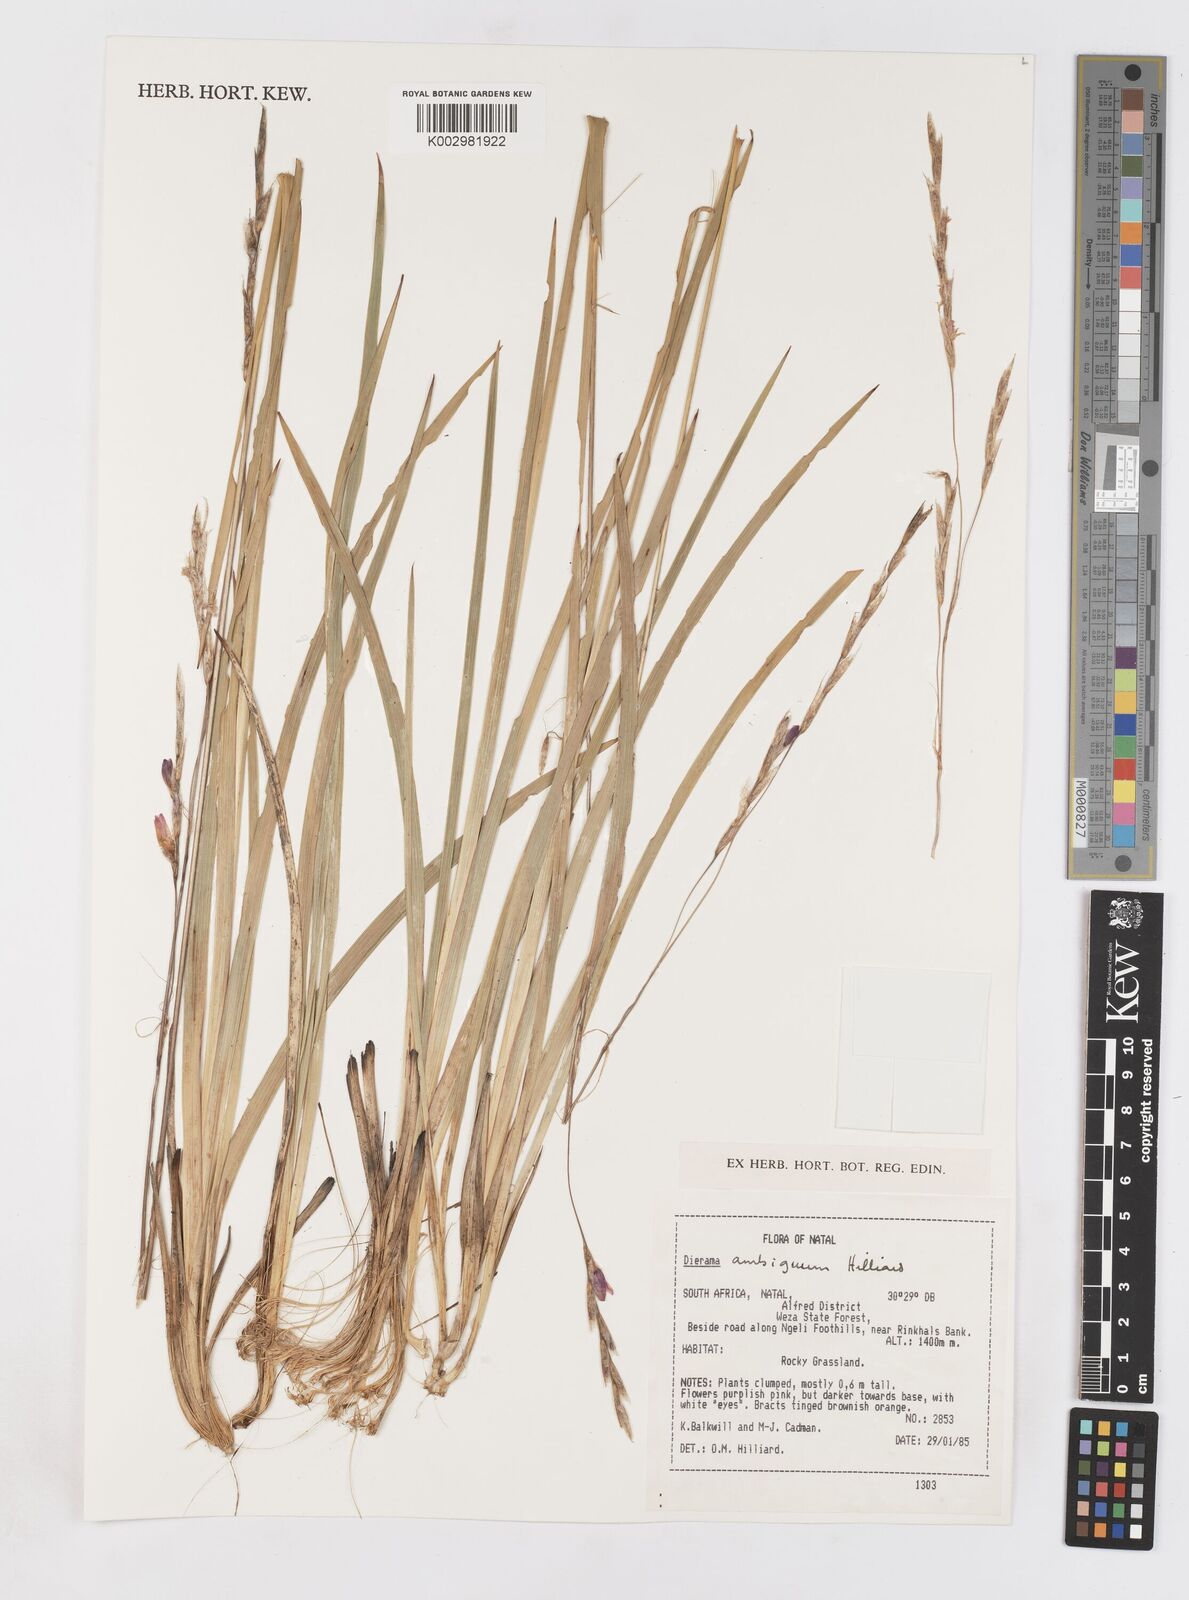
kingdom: Plantae
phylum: Tracheophyta
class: Liliopsida
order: Asparagales
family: Iridaceae
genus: Dierama
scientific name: Dierama ambiguum
